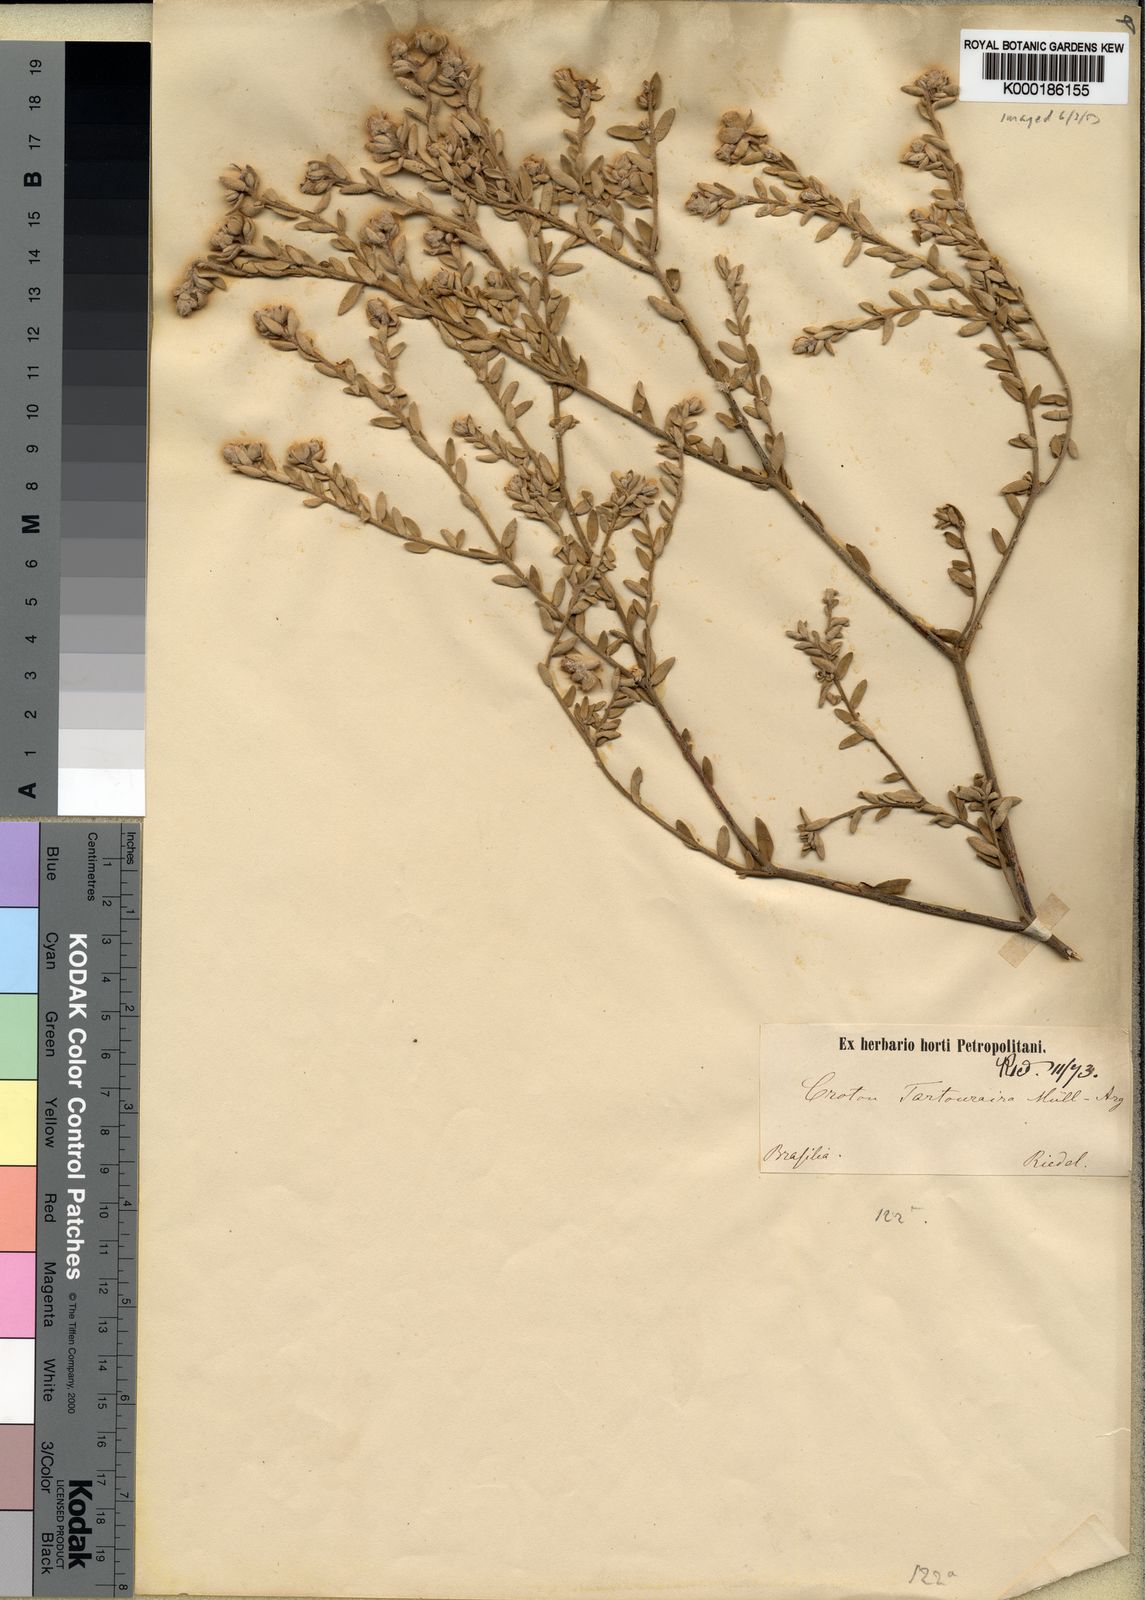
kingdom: Plantae
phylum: Tracheophyta
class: Magnoliopsida
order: Malpighiales
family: Euphorbiaceae
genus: Croton
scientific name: Croton
